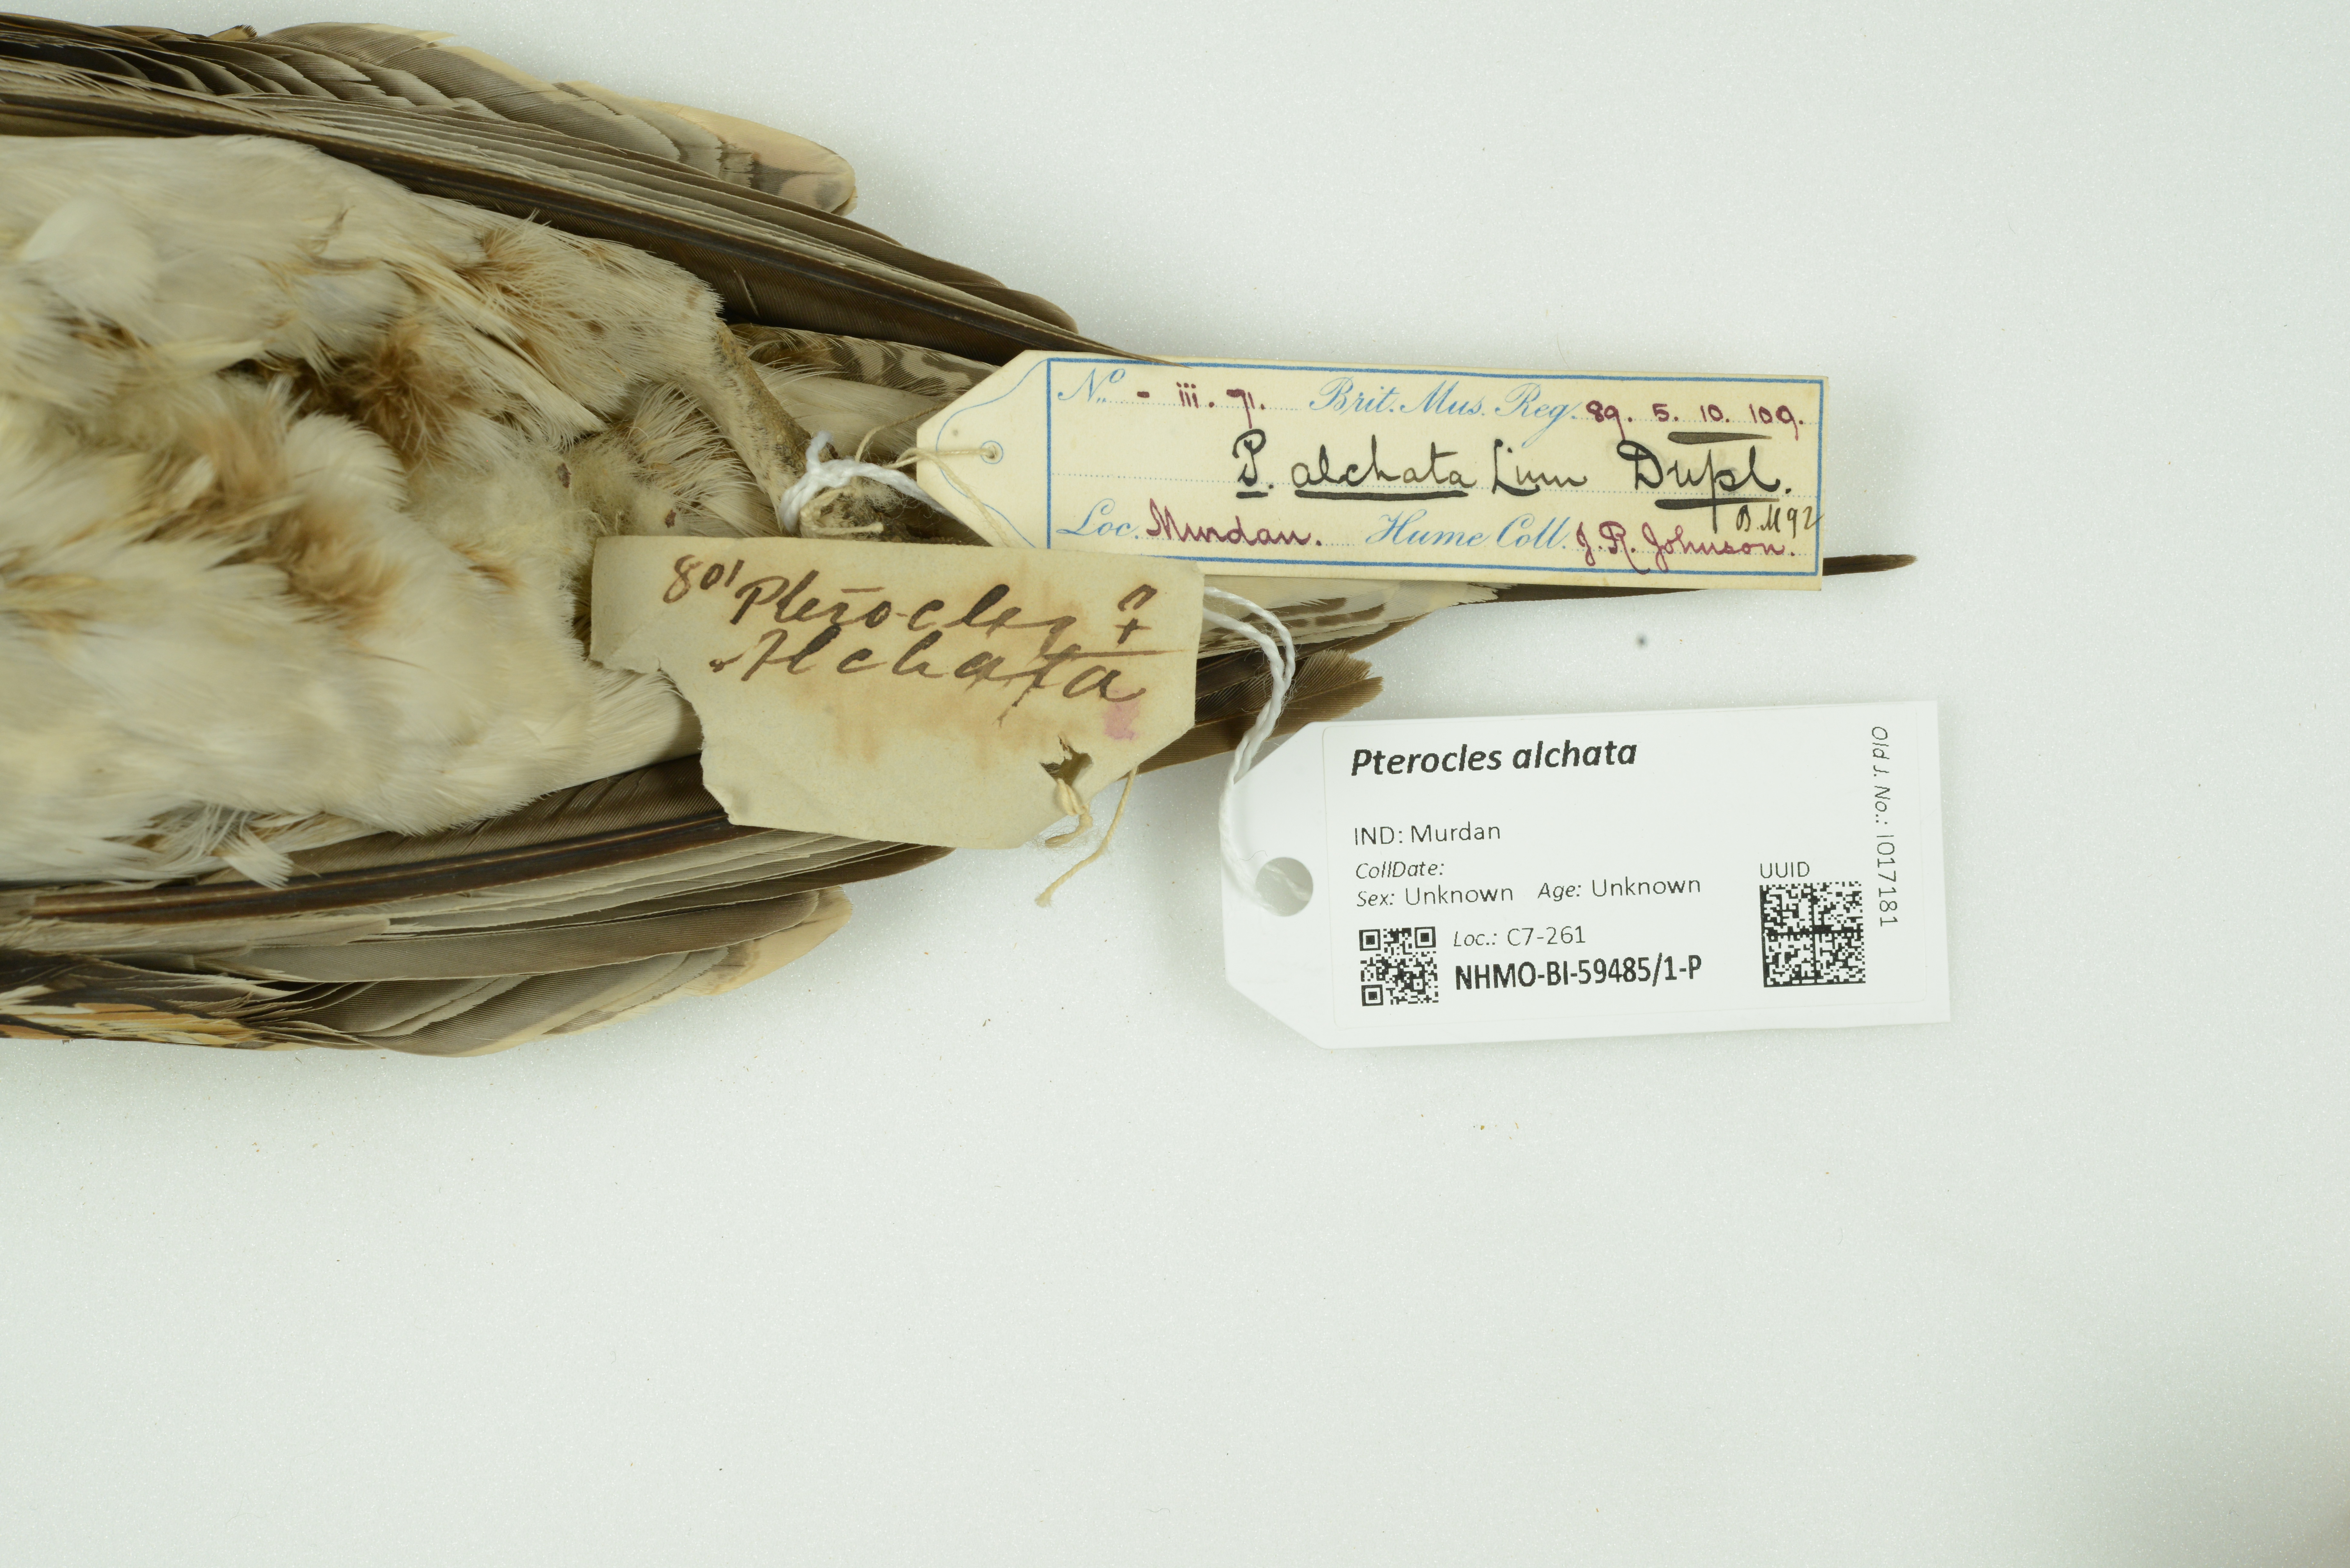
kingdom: Animalia
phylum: Chordata
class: Aves
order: Pteroclidiformes
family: Pteroclididae
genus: Pterocles
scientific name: Pterocles alchata
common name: Pin-tailed sandgrouse
